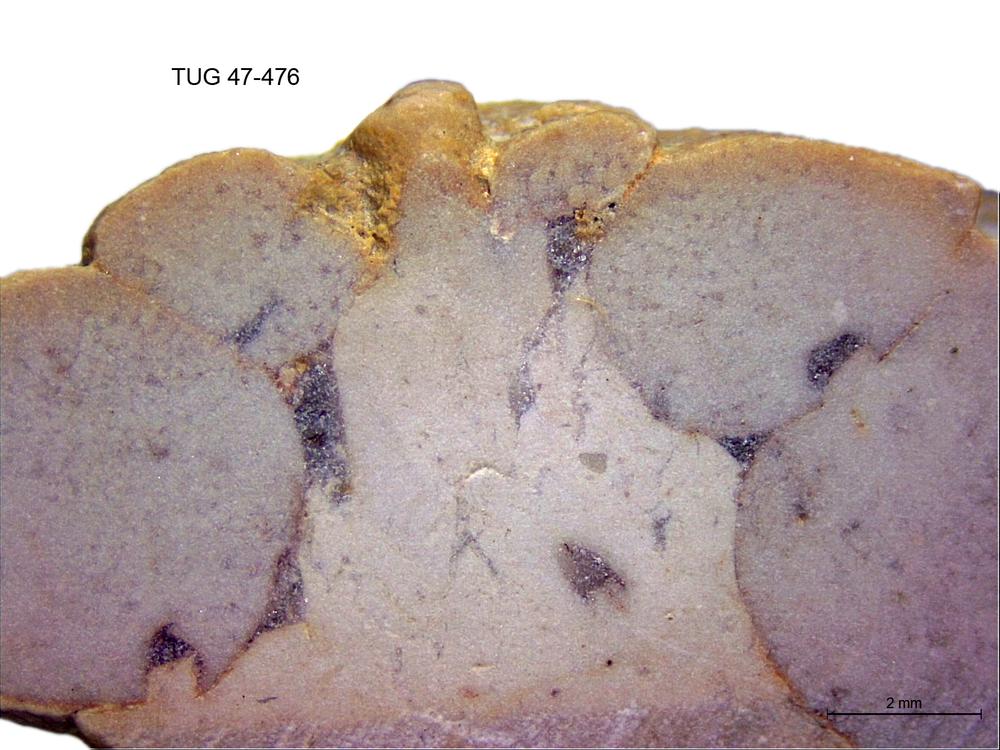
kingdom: Animalia
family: Coprulidae
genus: Coprulus
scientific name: Coprulus
